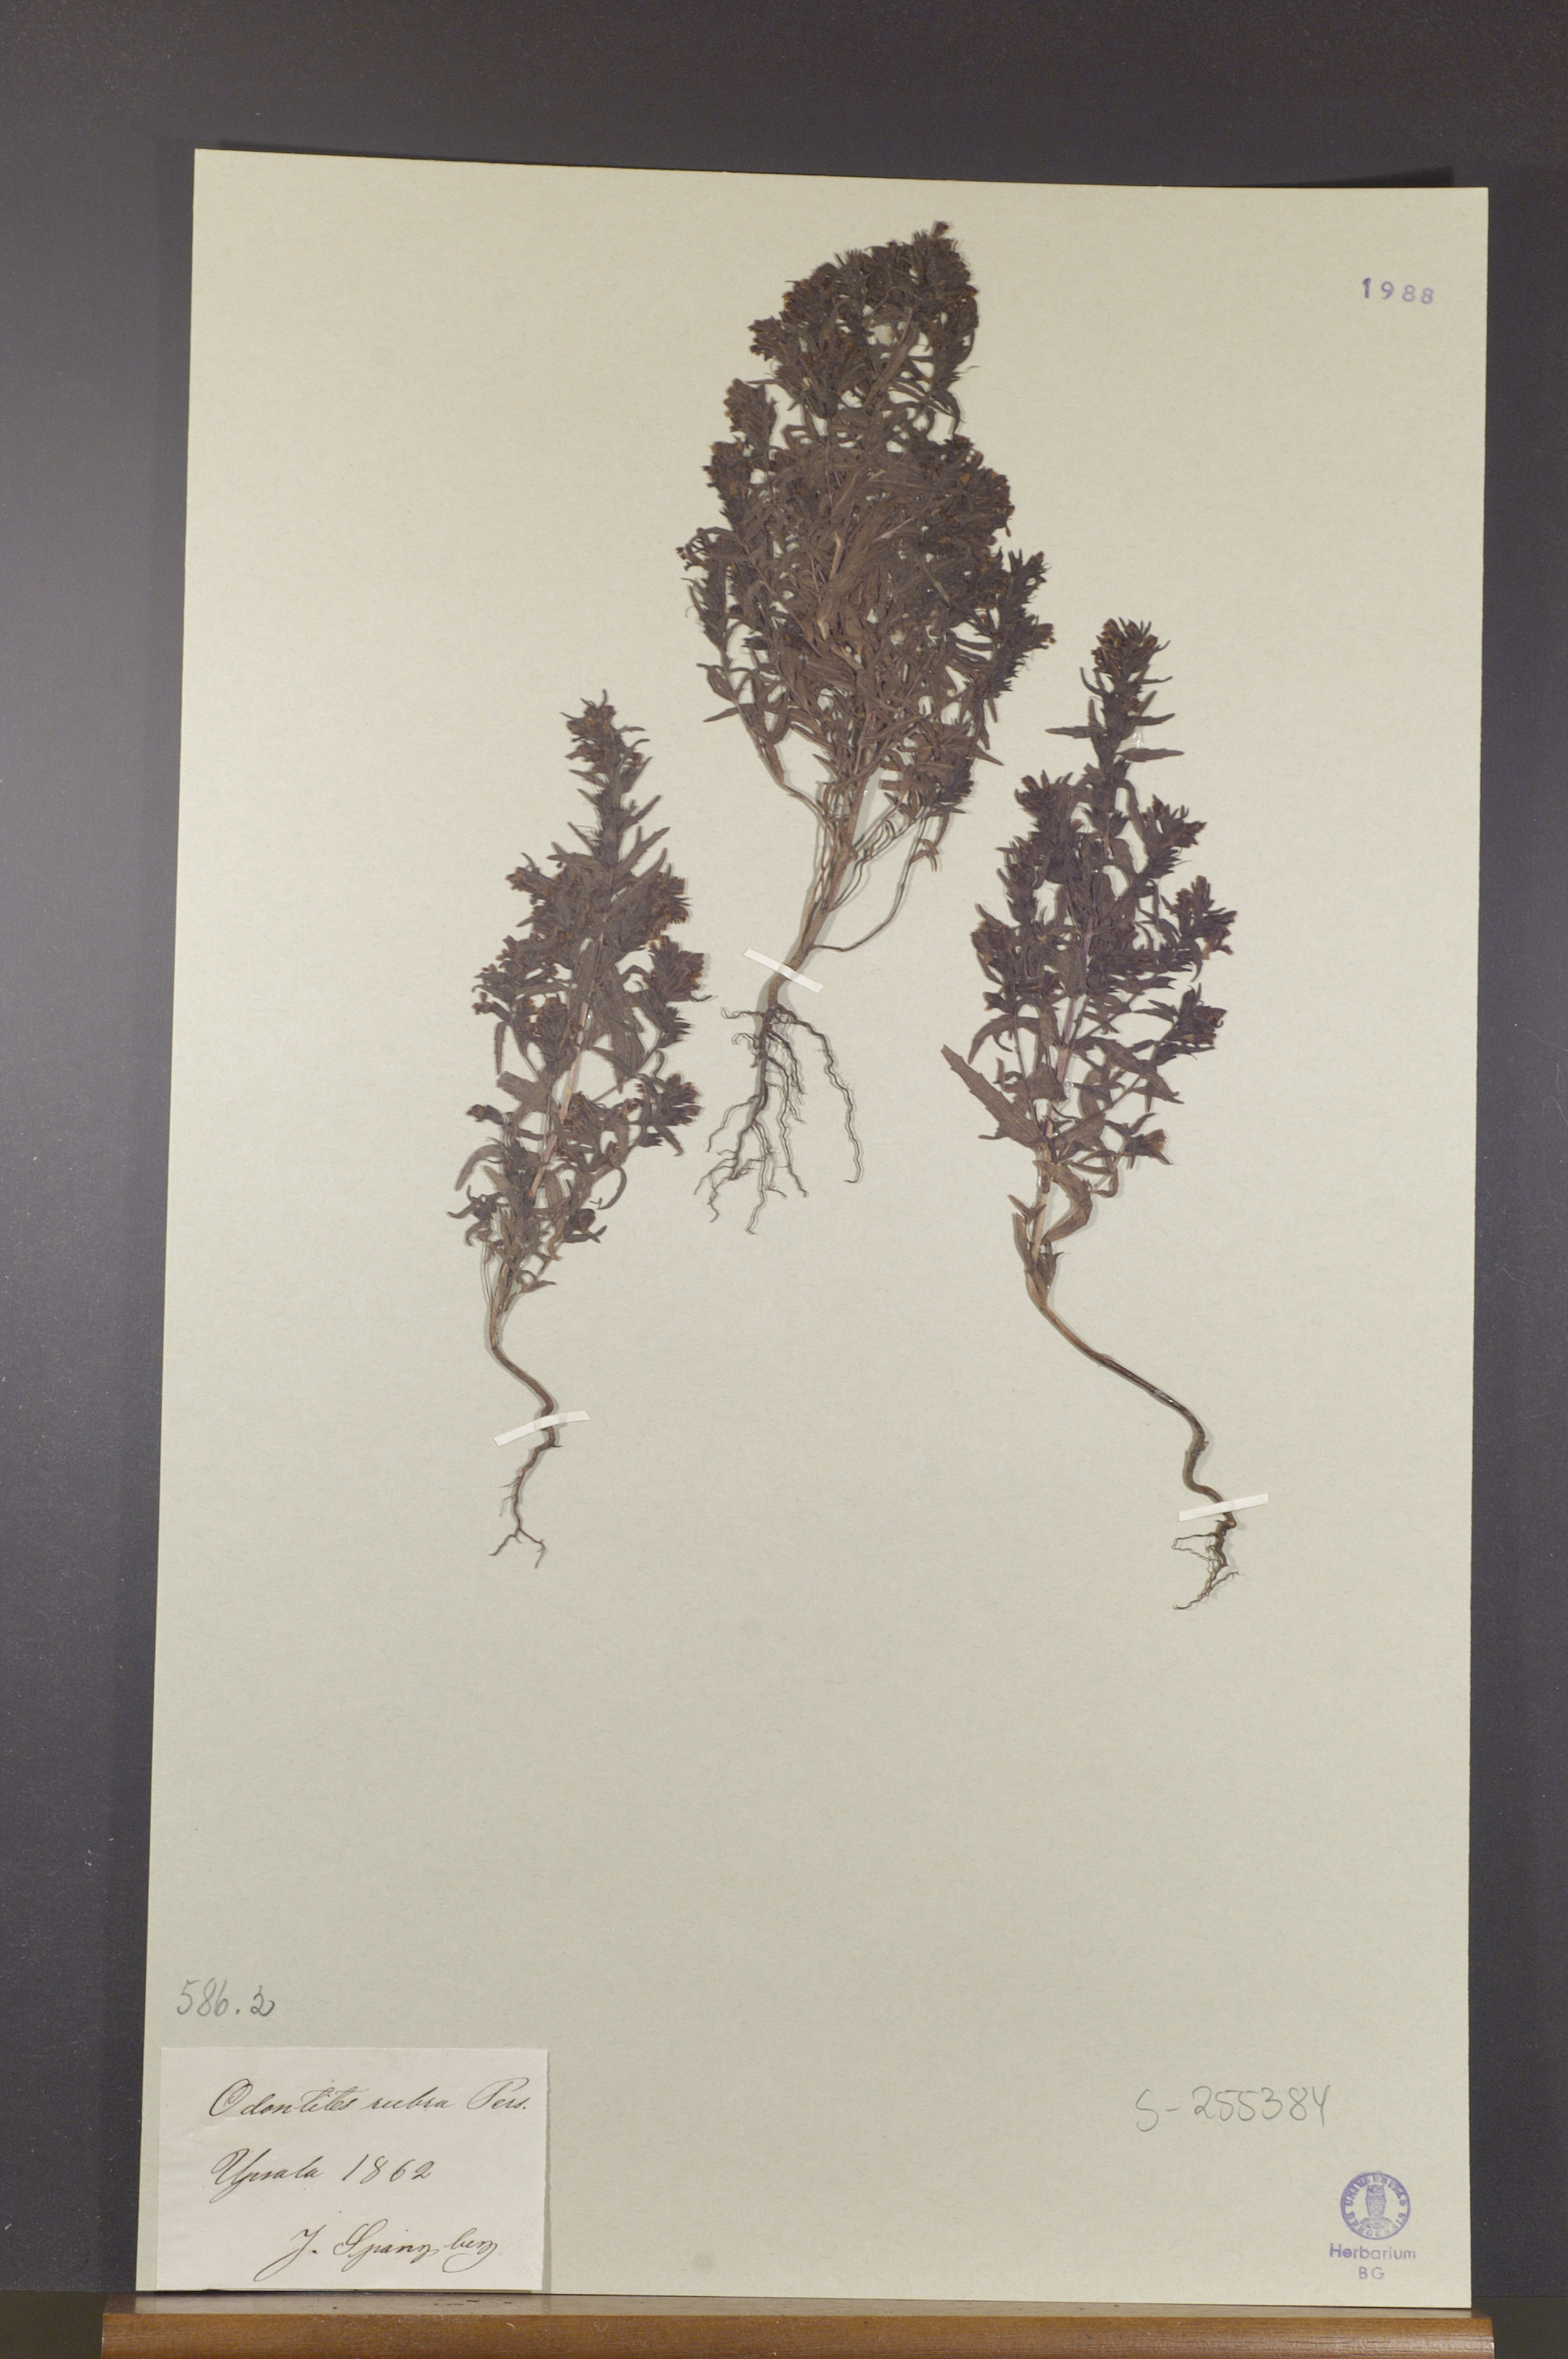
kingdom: Plantae
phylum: Tracheophyta
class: Magnoliopsida
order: Lamiales
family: Orobanchaceae
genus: Odontites
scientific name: Odontites vulgaris
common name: Broomrape
